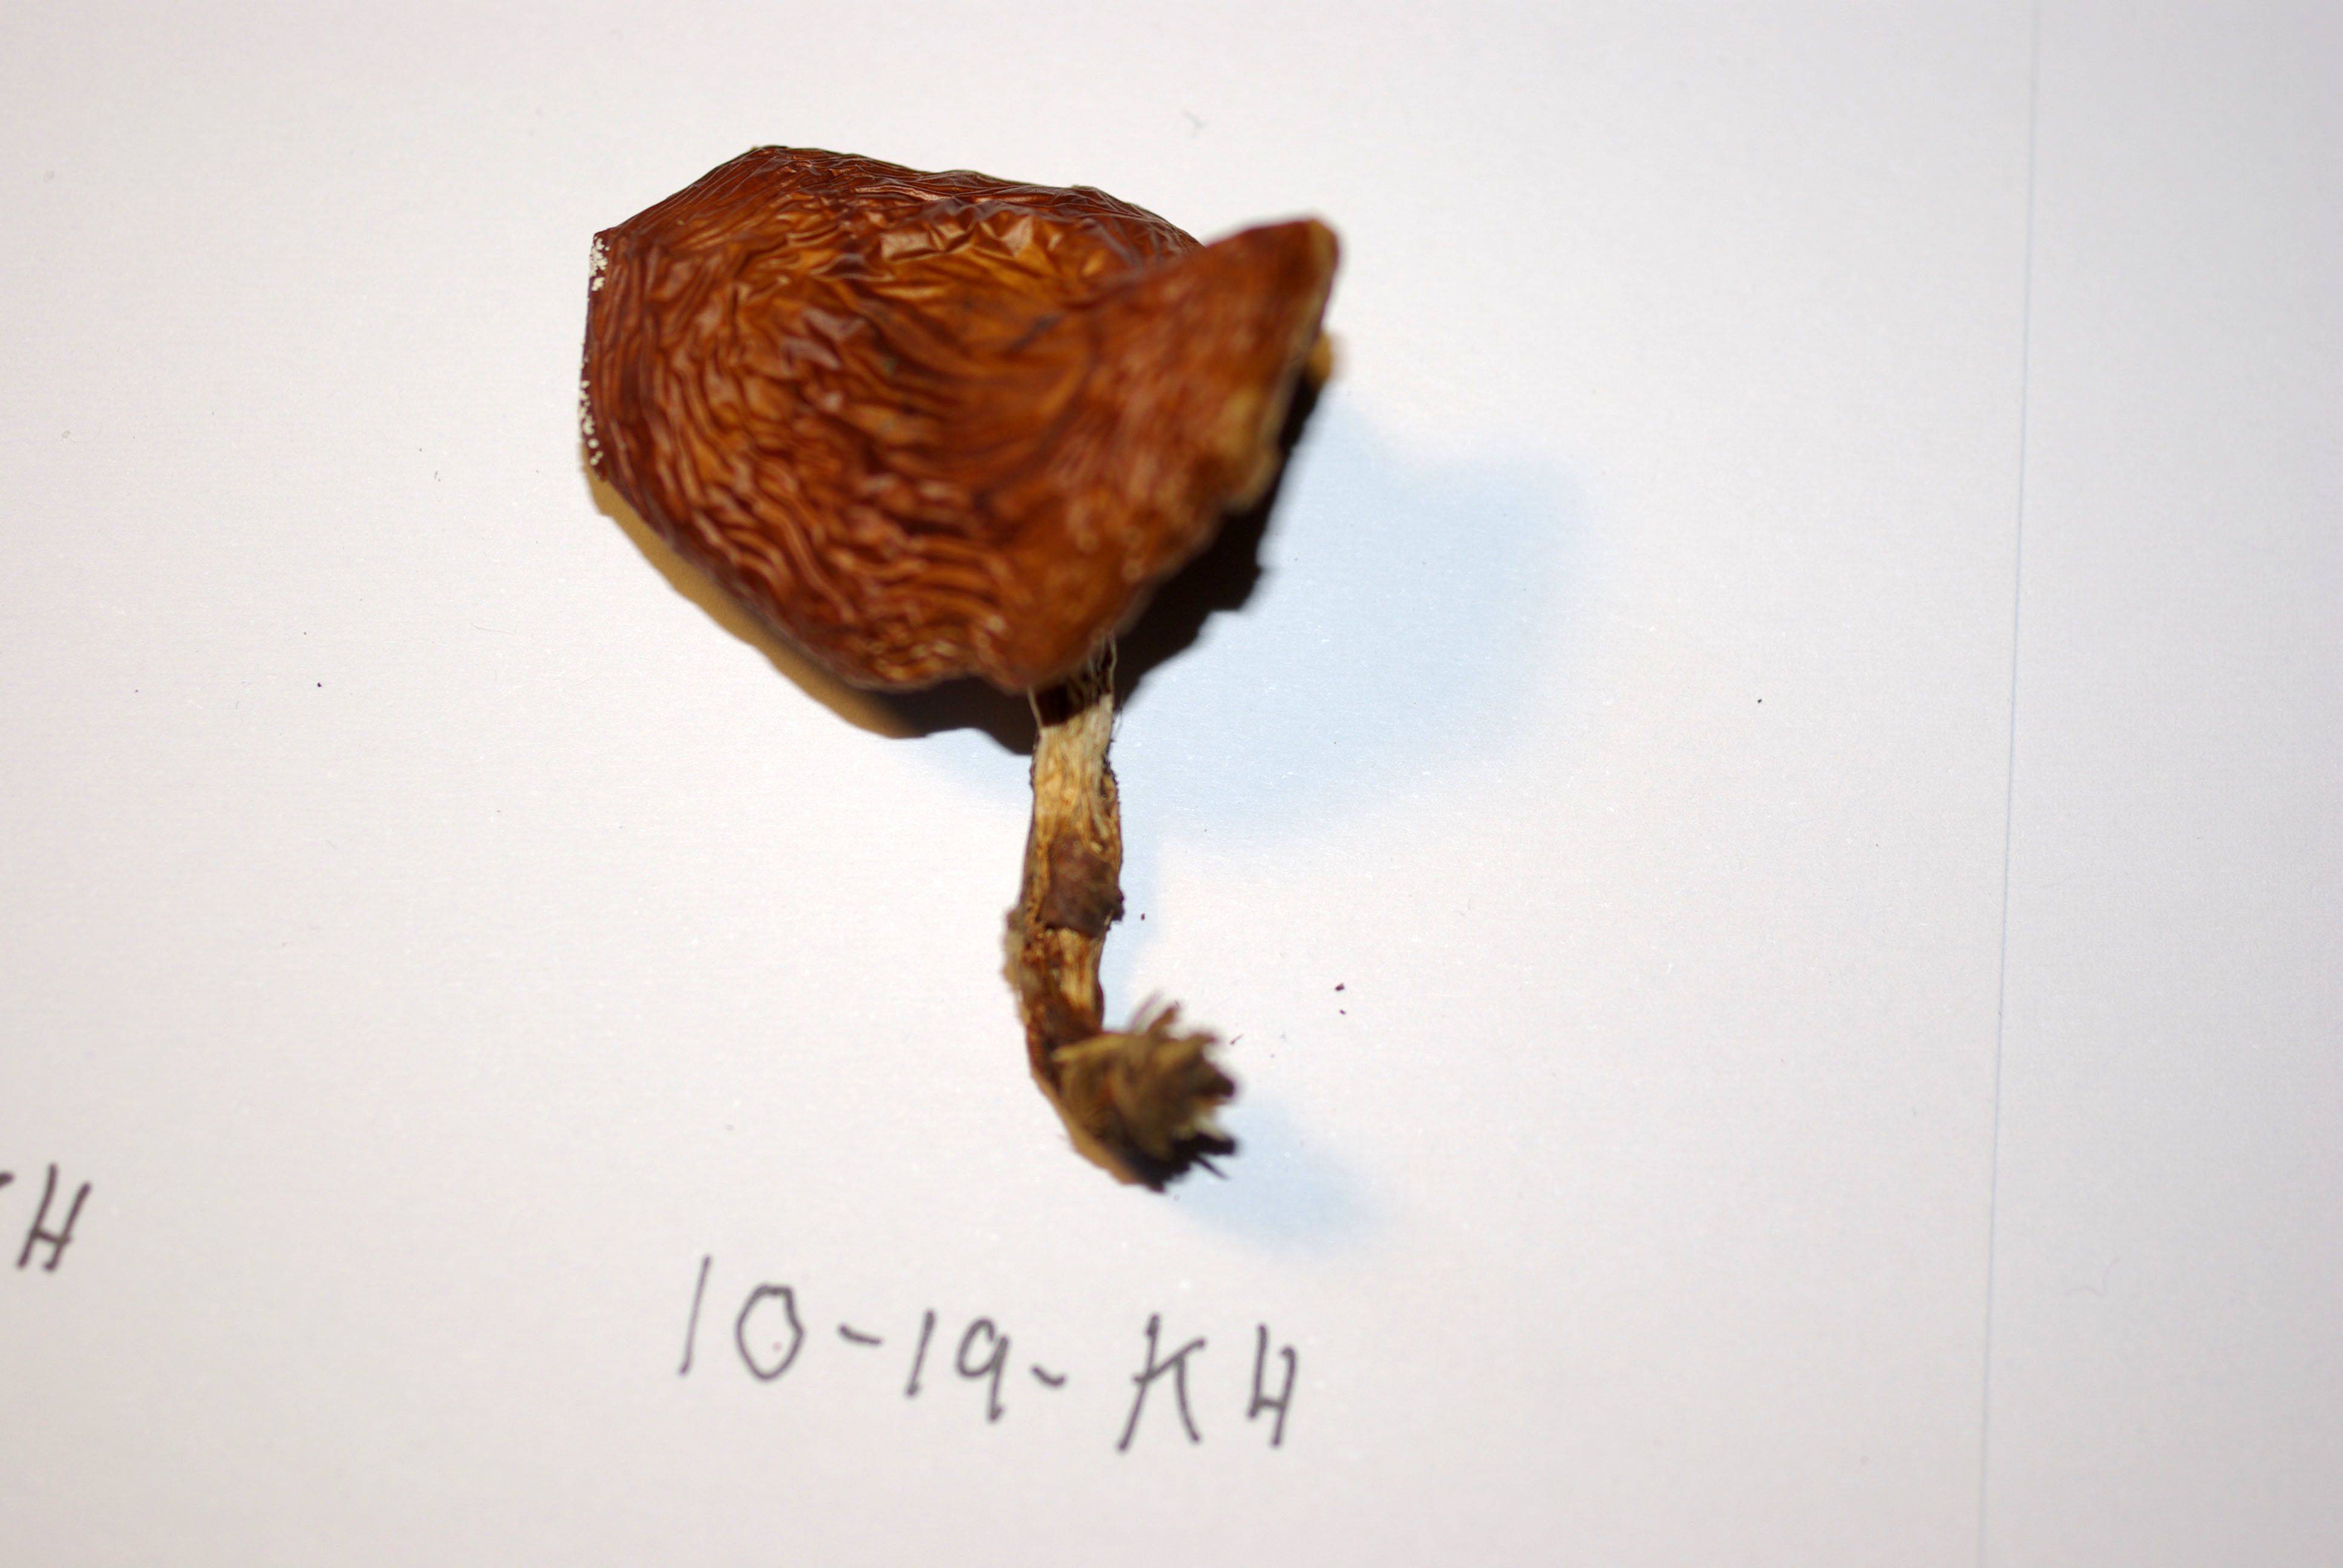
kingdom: Fungi
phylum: Basidiomycota
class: Agaricomycetes
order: Agaricales
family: Cortinariaceae
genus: Cortinarius
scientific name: Cortinarius alpinus
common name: Mountain webcap
